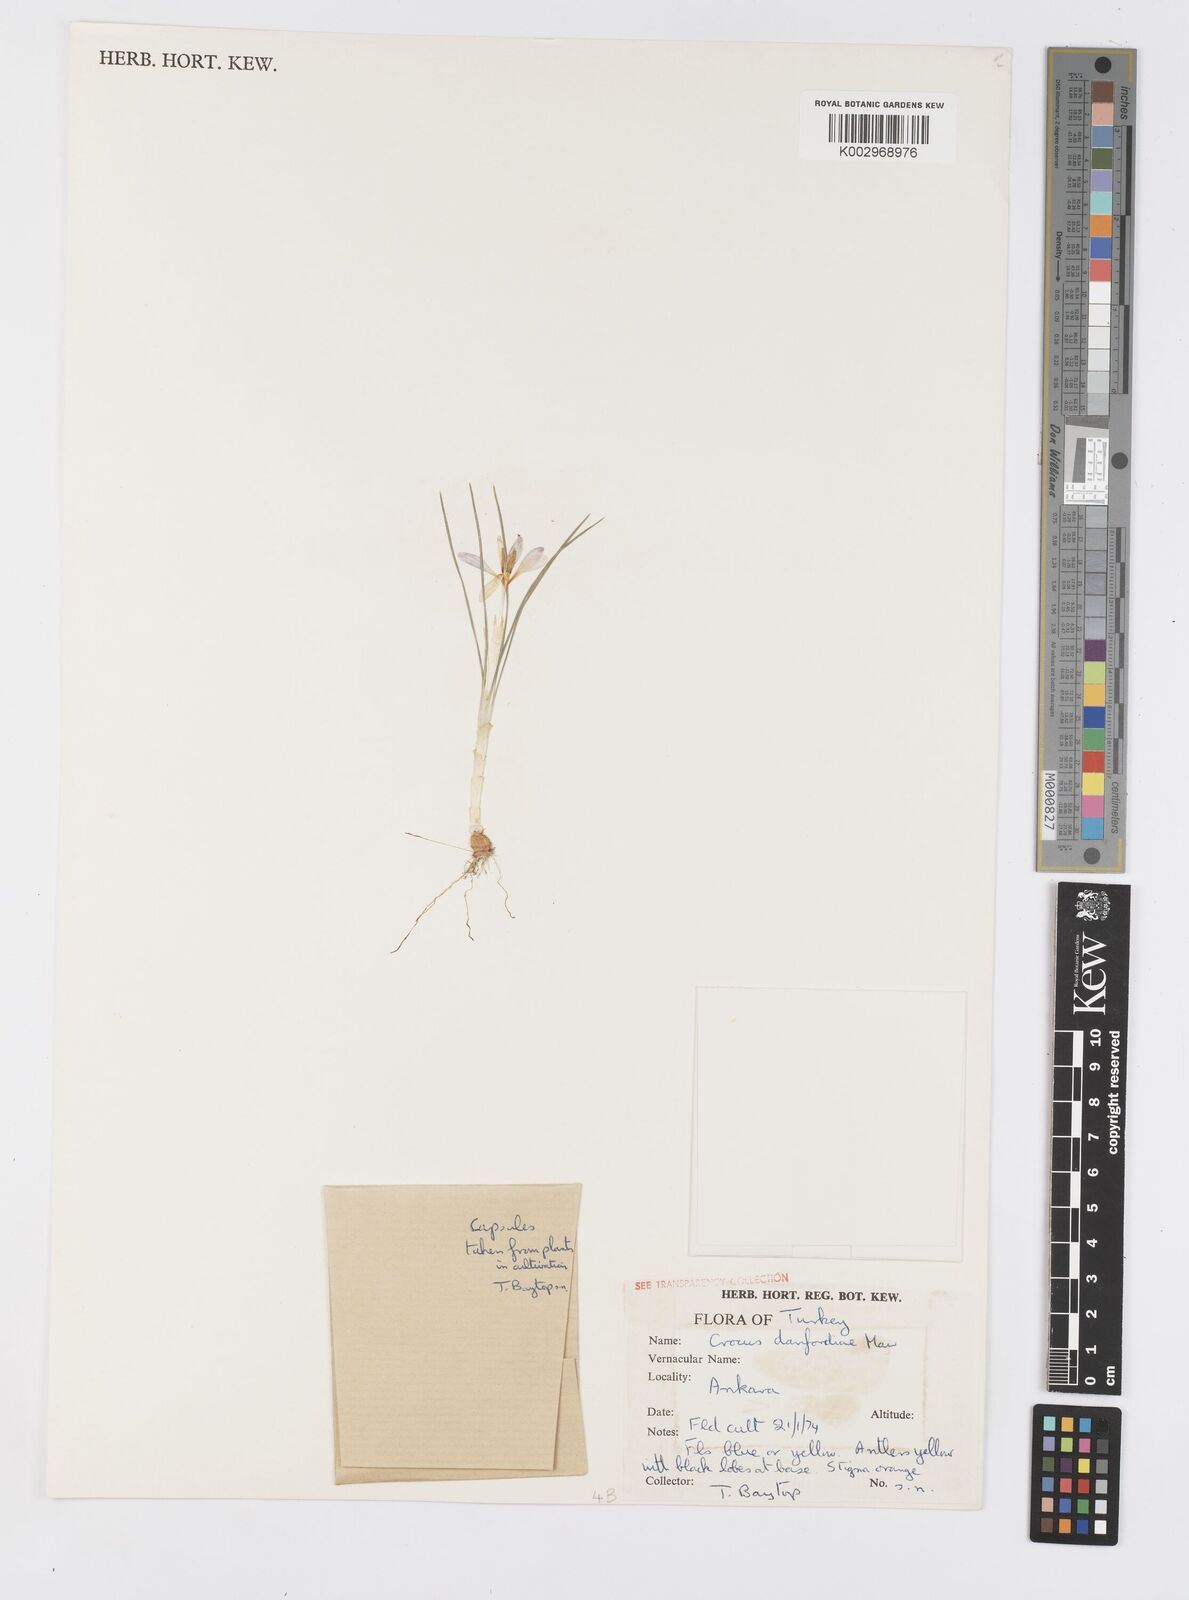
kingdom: Plantae
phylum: Tracheophyta
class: Liliopsida
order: Asparagales
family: Iridaceae
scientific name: Iridaceae
